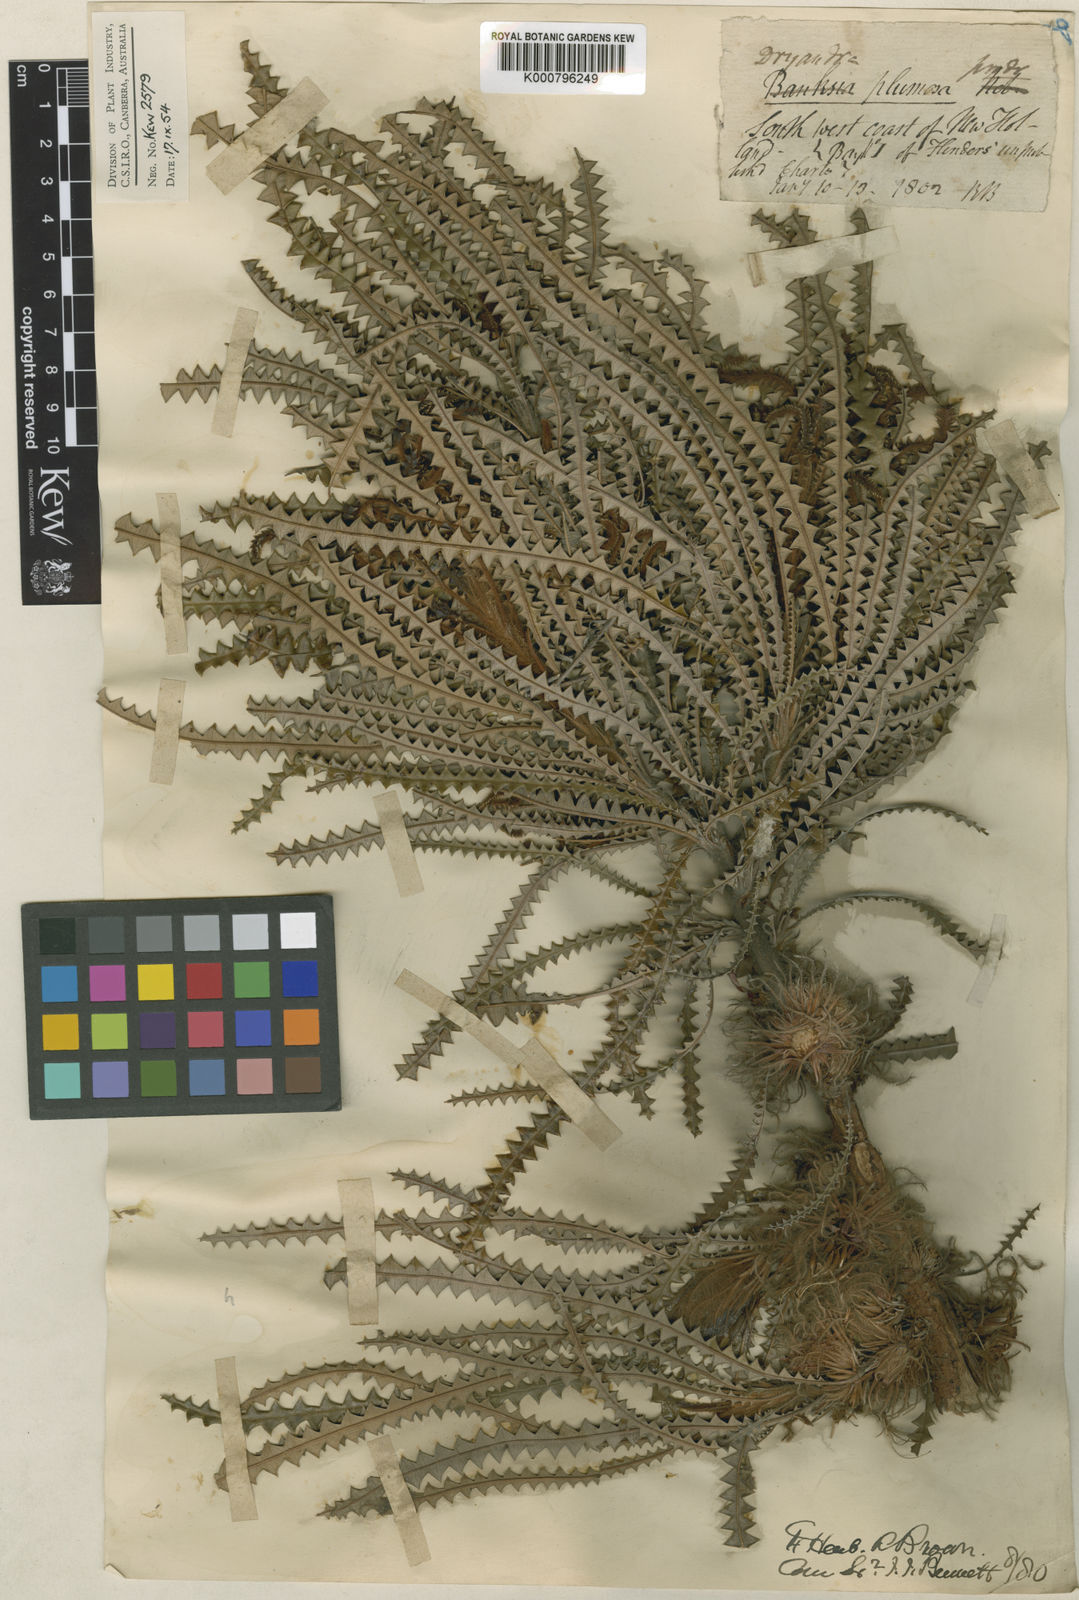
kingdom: Plantae
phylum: Tracheophyta
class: Magnoliopsida
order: Proteales
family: Proteaceae
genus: Banksia
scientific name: Banksia plumosa
